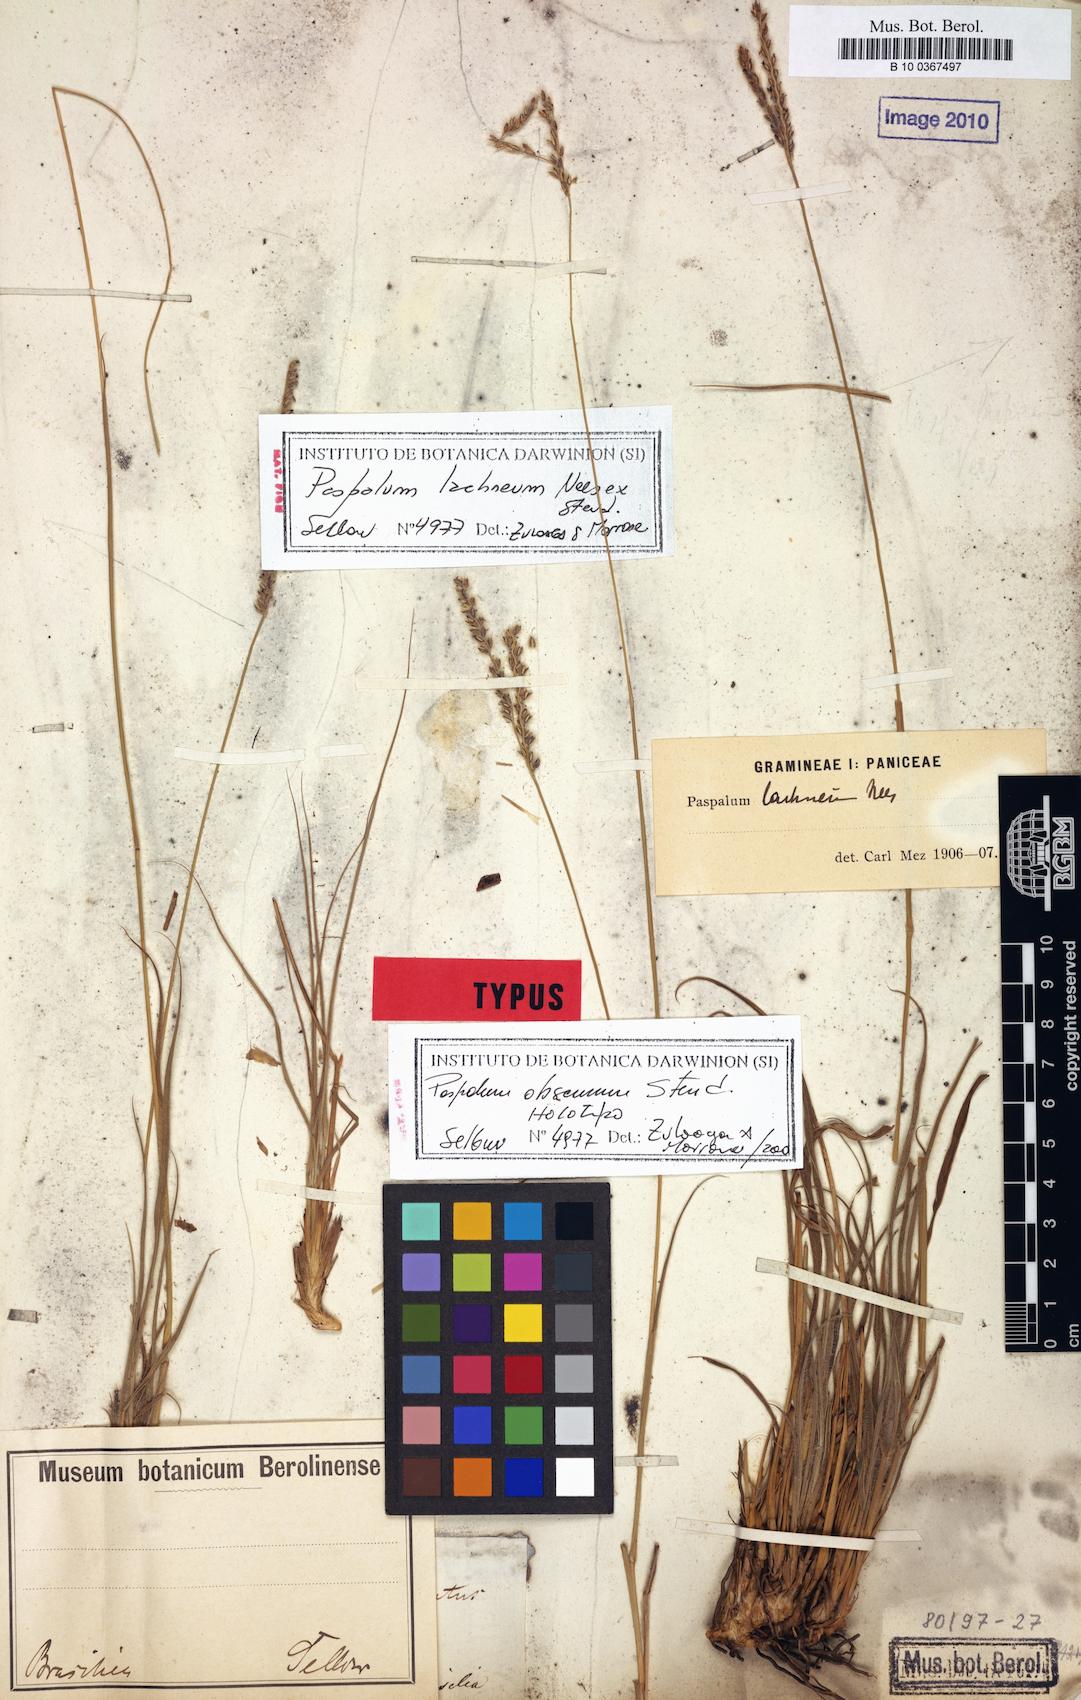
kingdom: Plantae
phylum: Tracheophyta
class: Liliopsida
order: Poales
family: Poaceae
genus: Paspalum
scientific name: Paspalum lachneum
